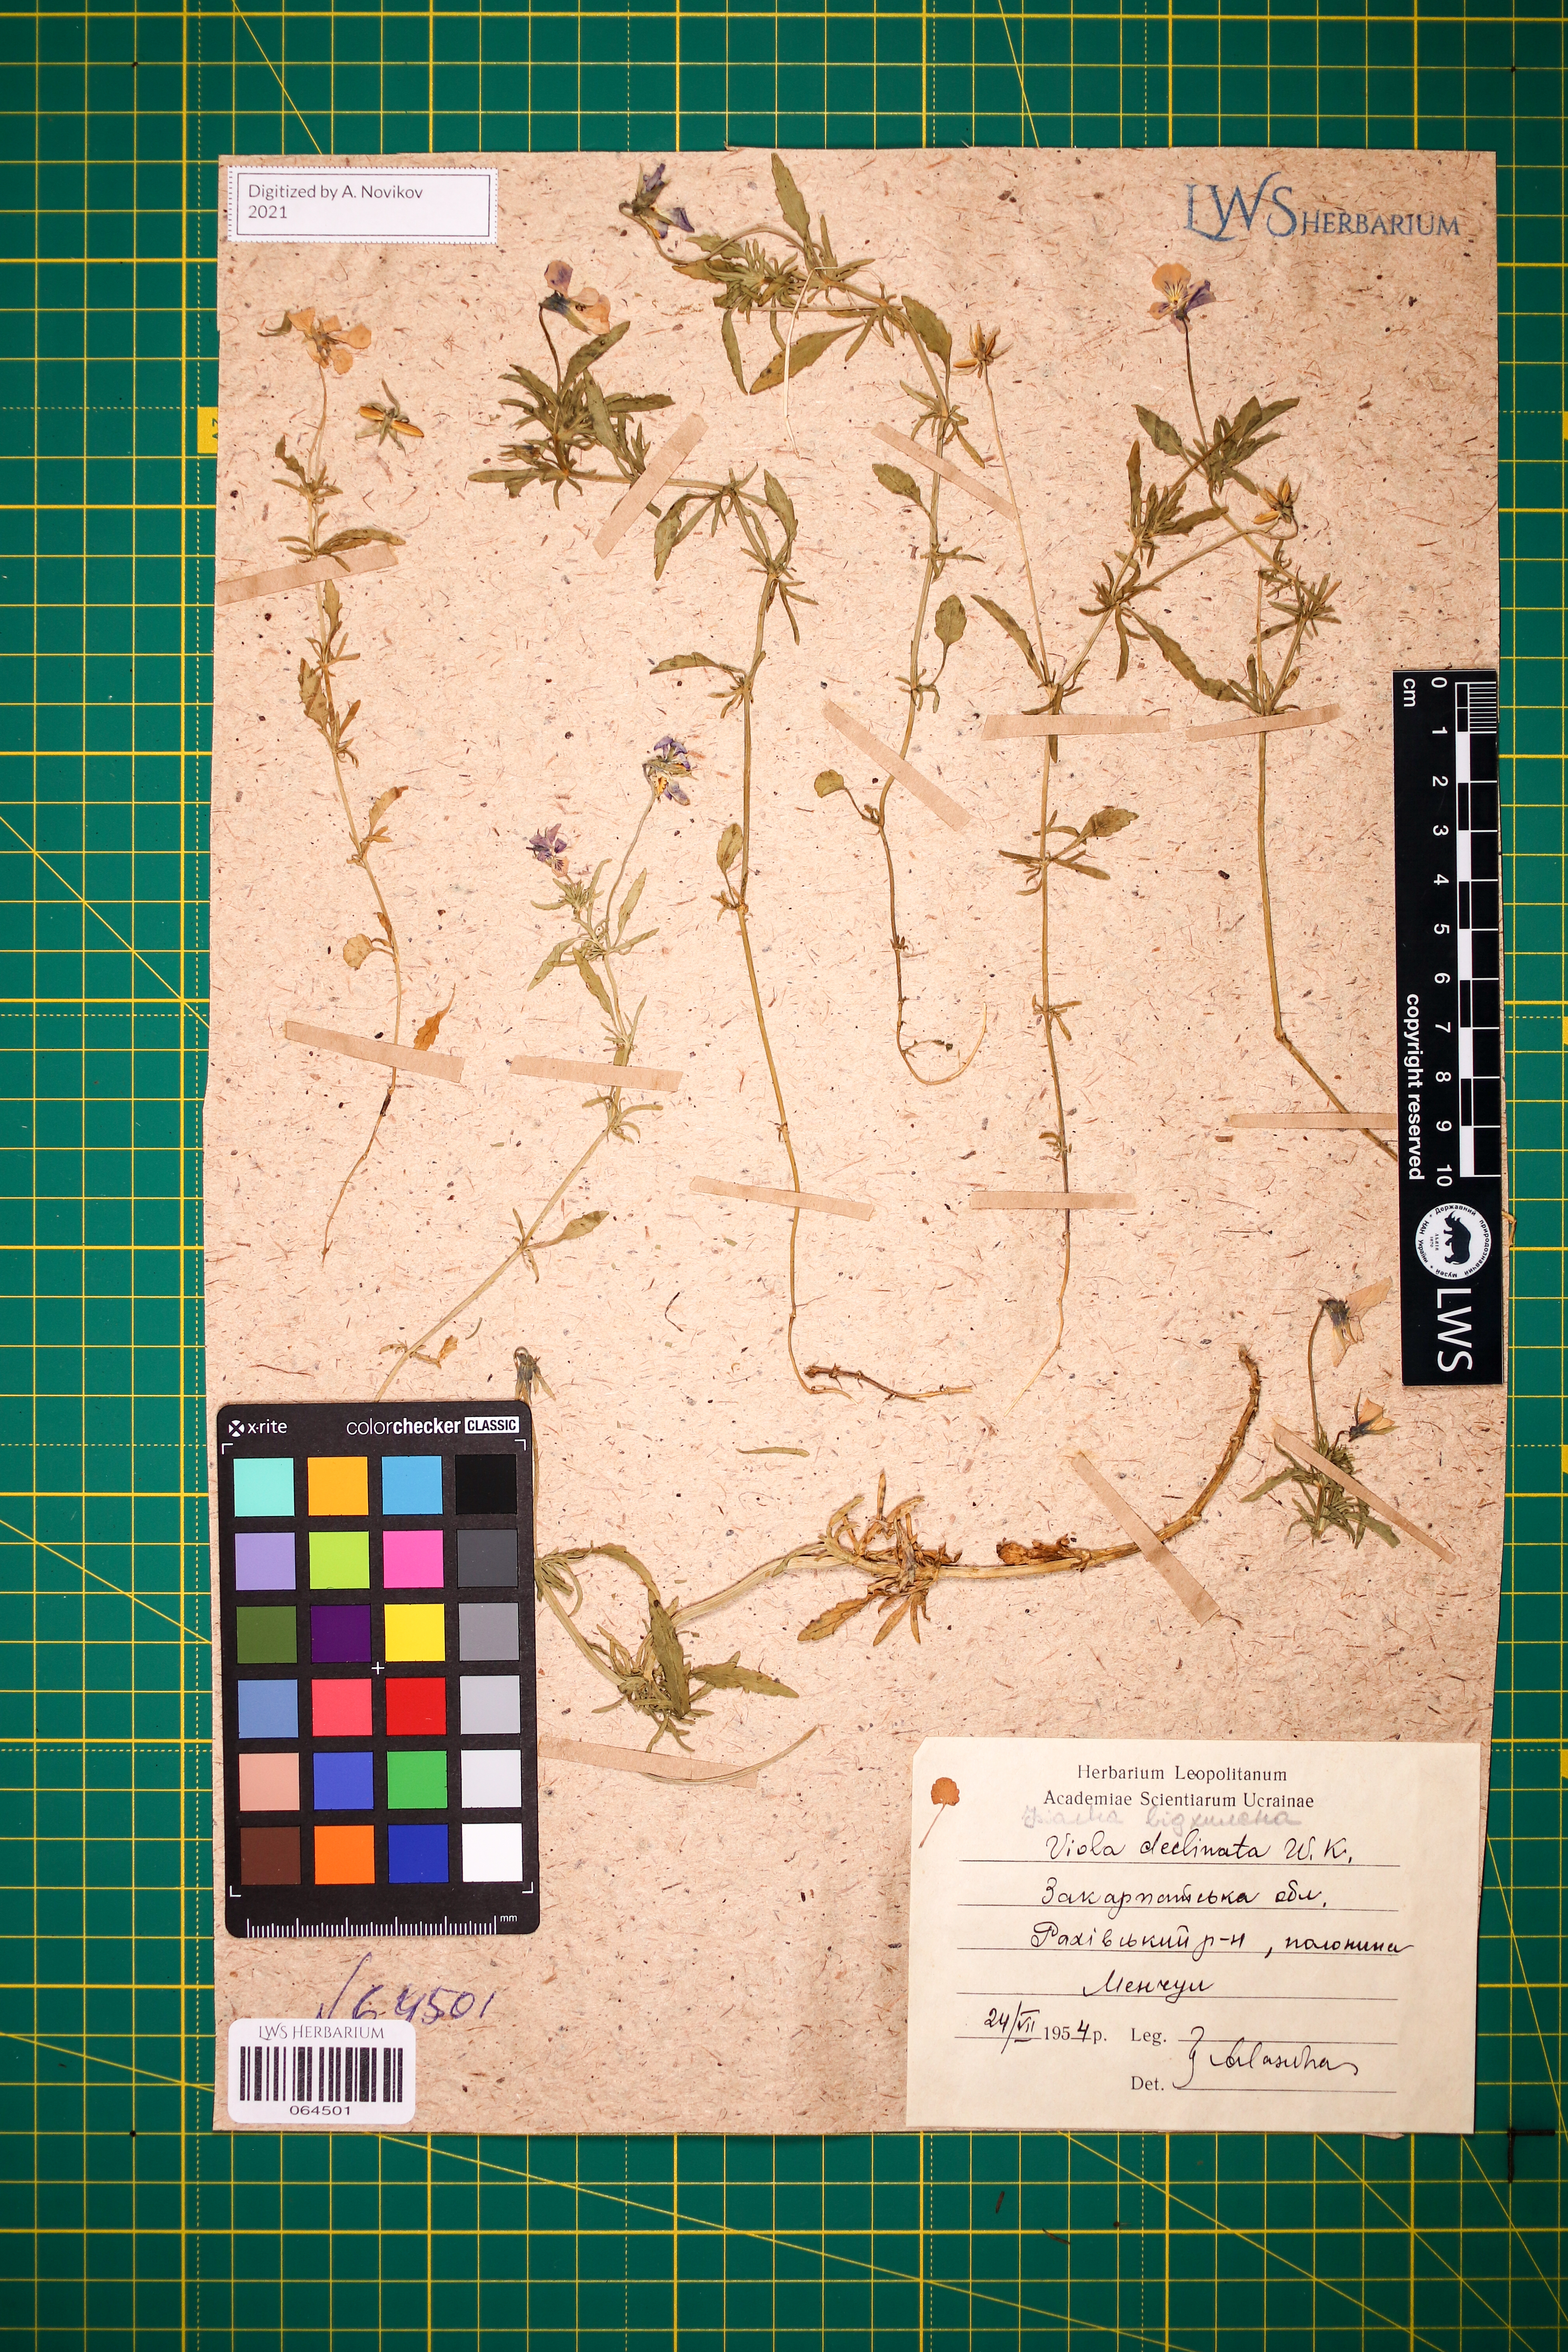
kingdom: Plantae
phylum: Tracheophyta
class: Magnoliopsida
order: Malpighiales
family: Violaceae
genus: Viola
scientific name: Viola declinata
